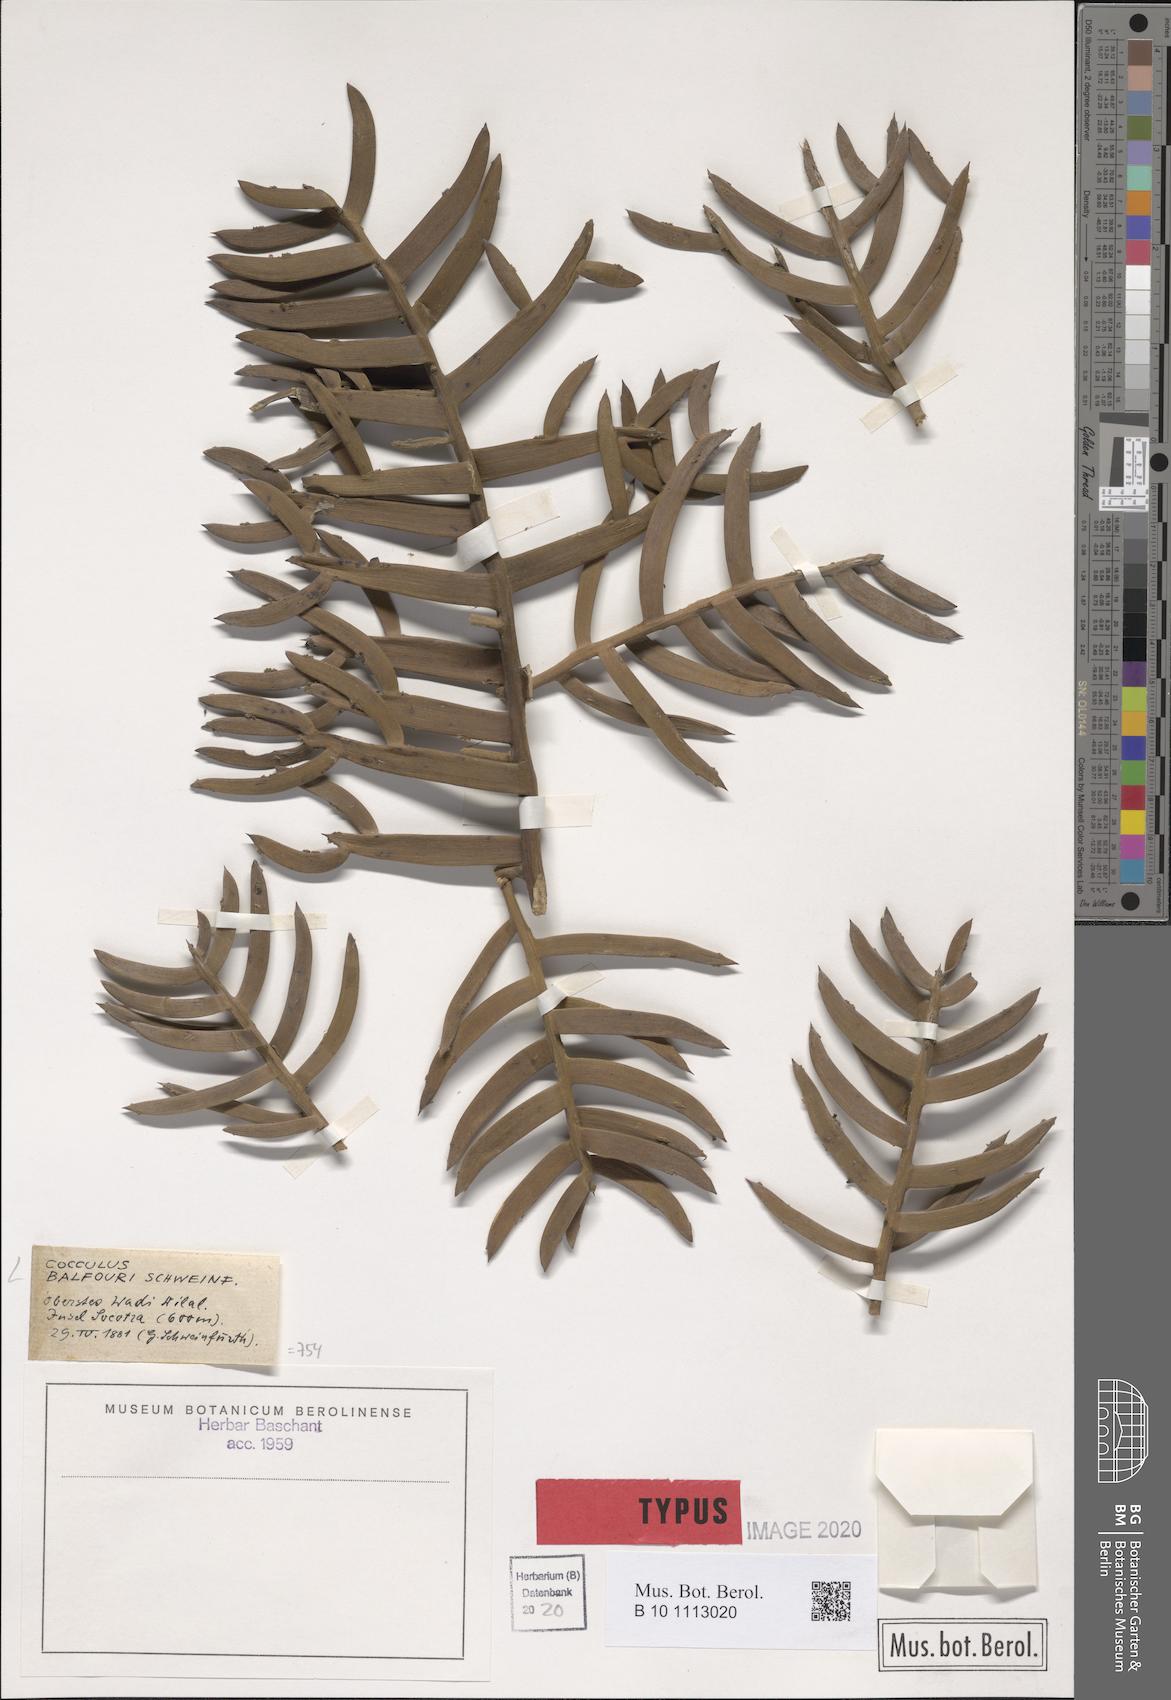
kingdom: Plantae
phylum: Tracheophyta
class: Magnoliopsida
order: Ranunculales
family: Menispermaceae
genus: Cocculus
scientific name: Cocculus balfourii
